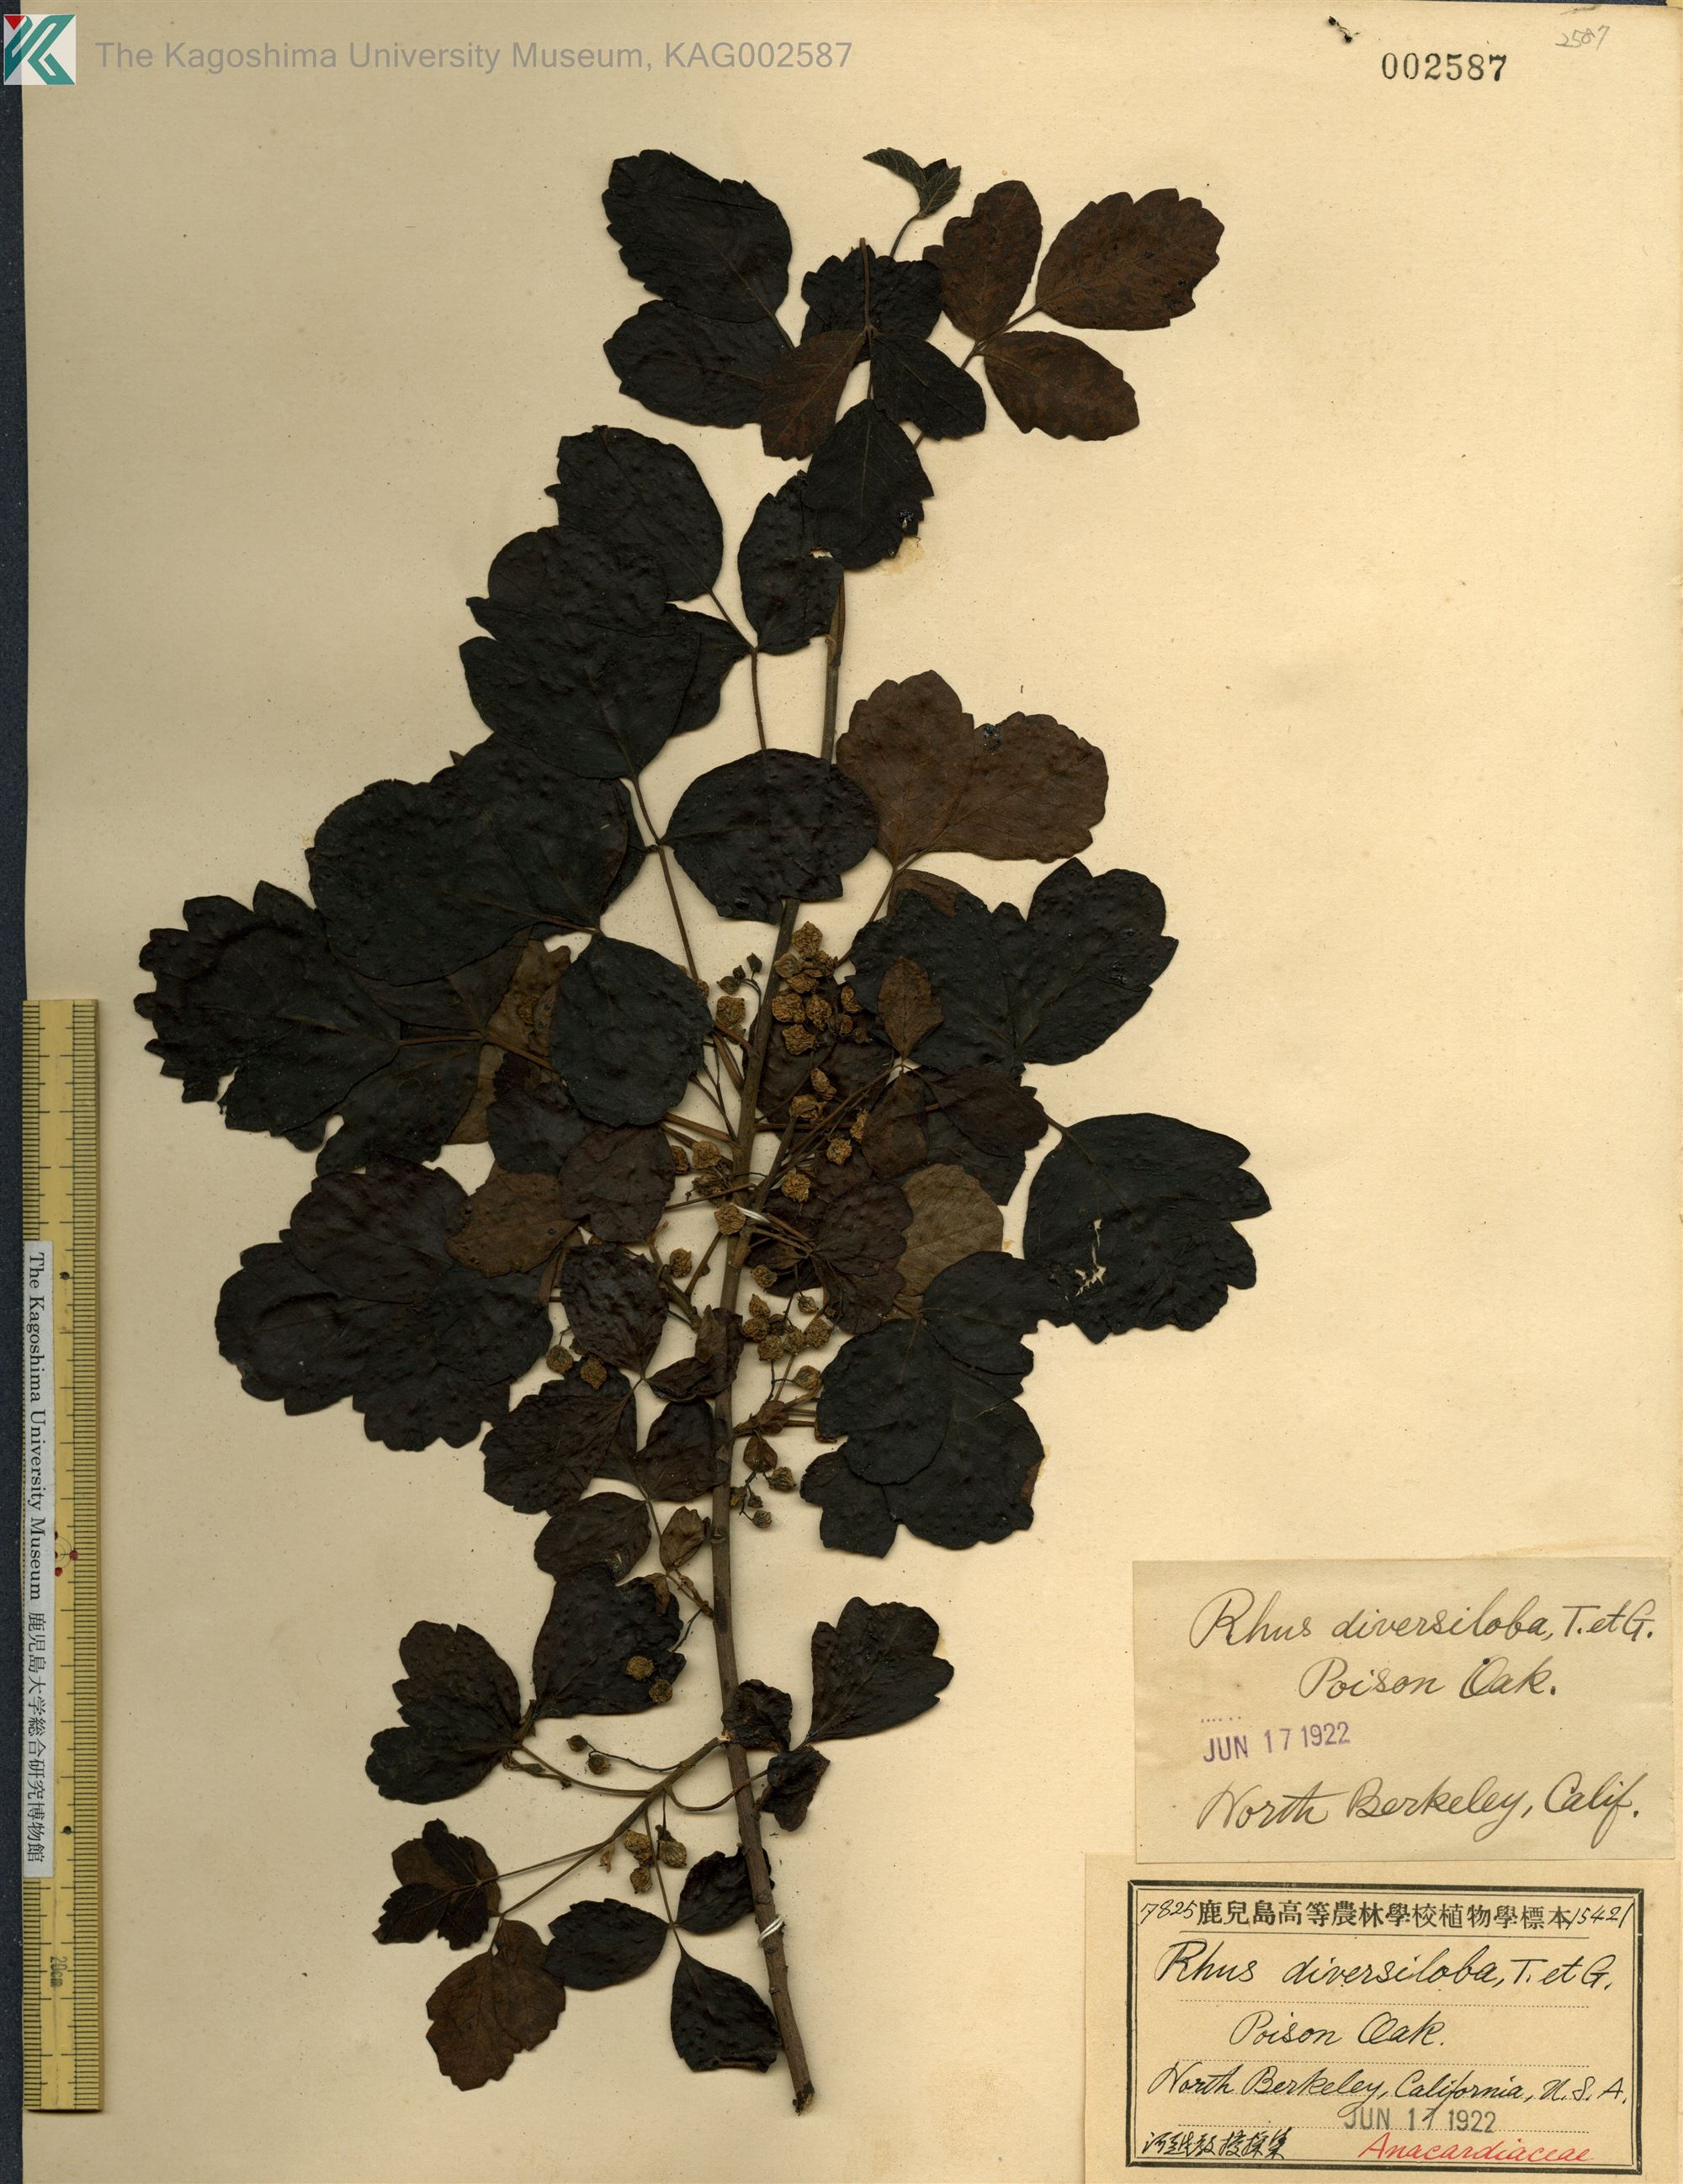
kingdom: Plantae
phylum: Tracheophyta
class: Magnoliopsida
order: Sapindales
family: Anacardiaceae
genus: Toxicodendron
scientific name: Toxicodendron diversilobum
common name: Pacific poison-oak
